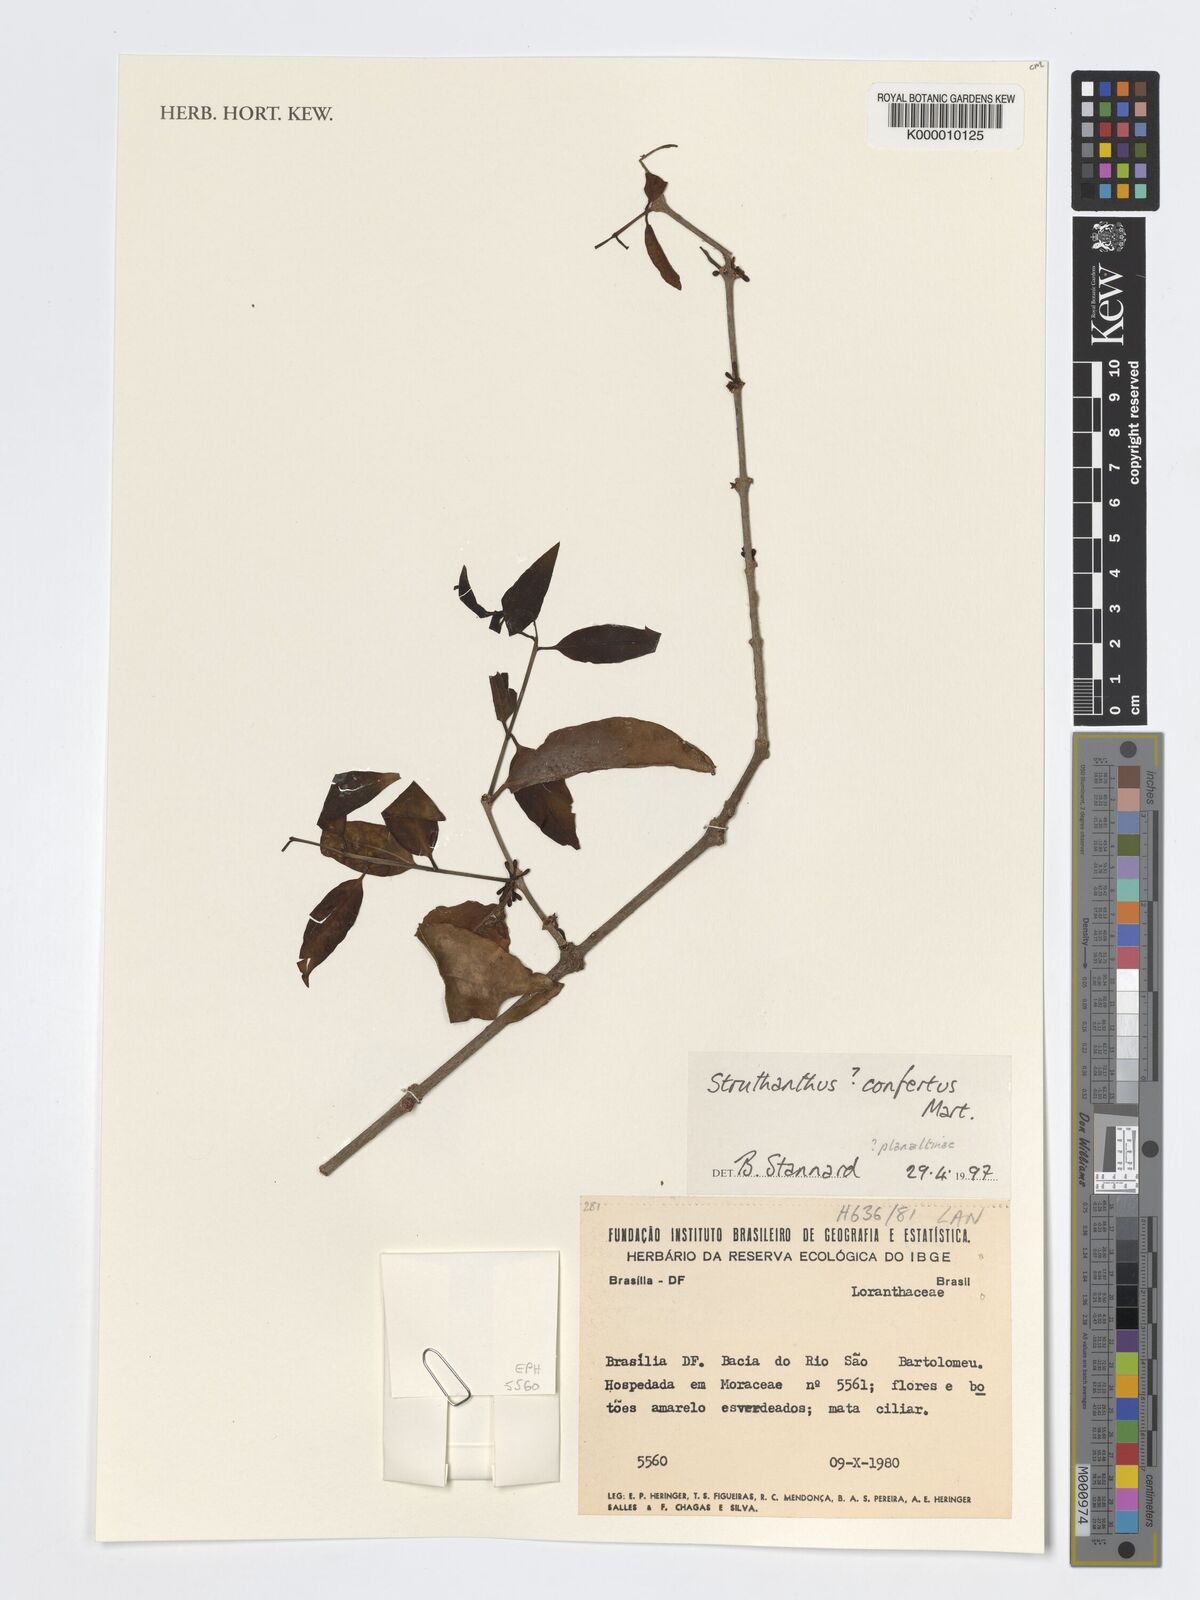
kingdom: Plantae
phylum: Tracheophyta
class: Magnoliopsida
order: Santalales
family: Loranthaceae
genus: Struthanthus
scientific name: Struthanthus confertus
